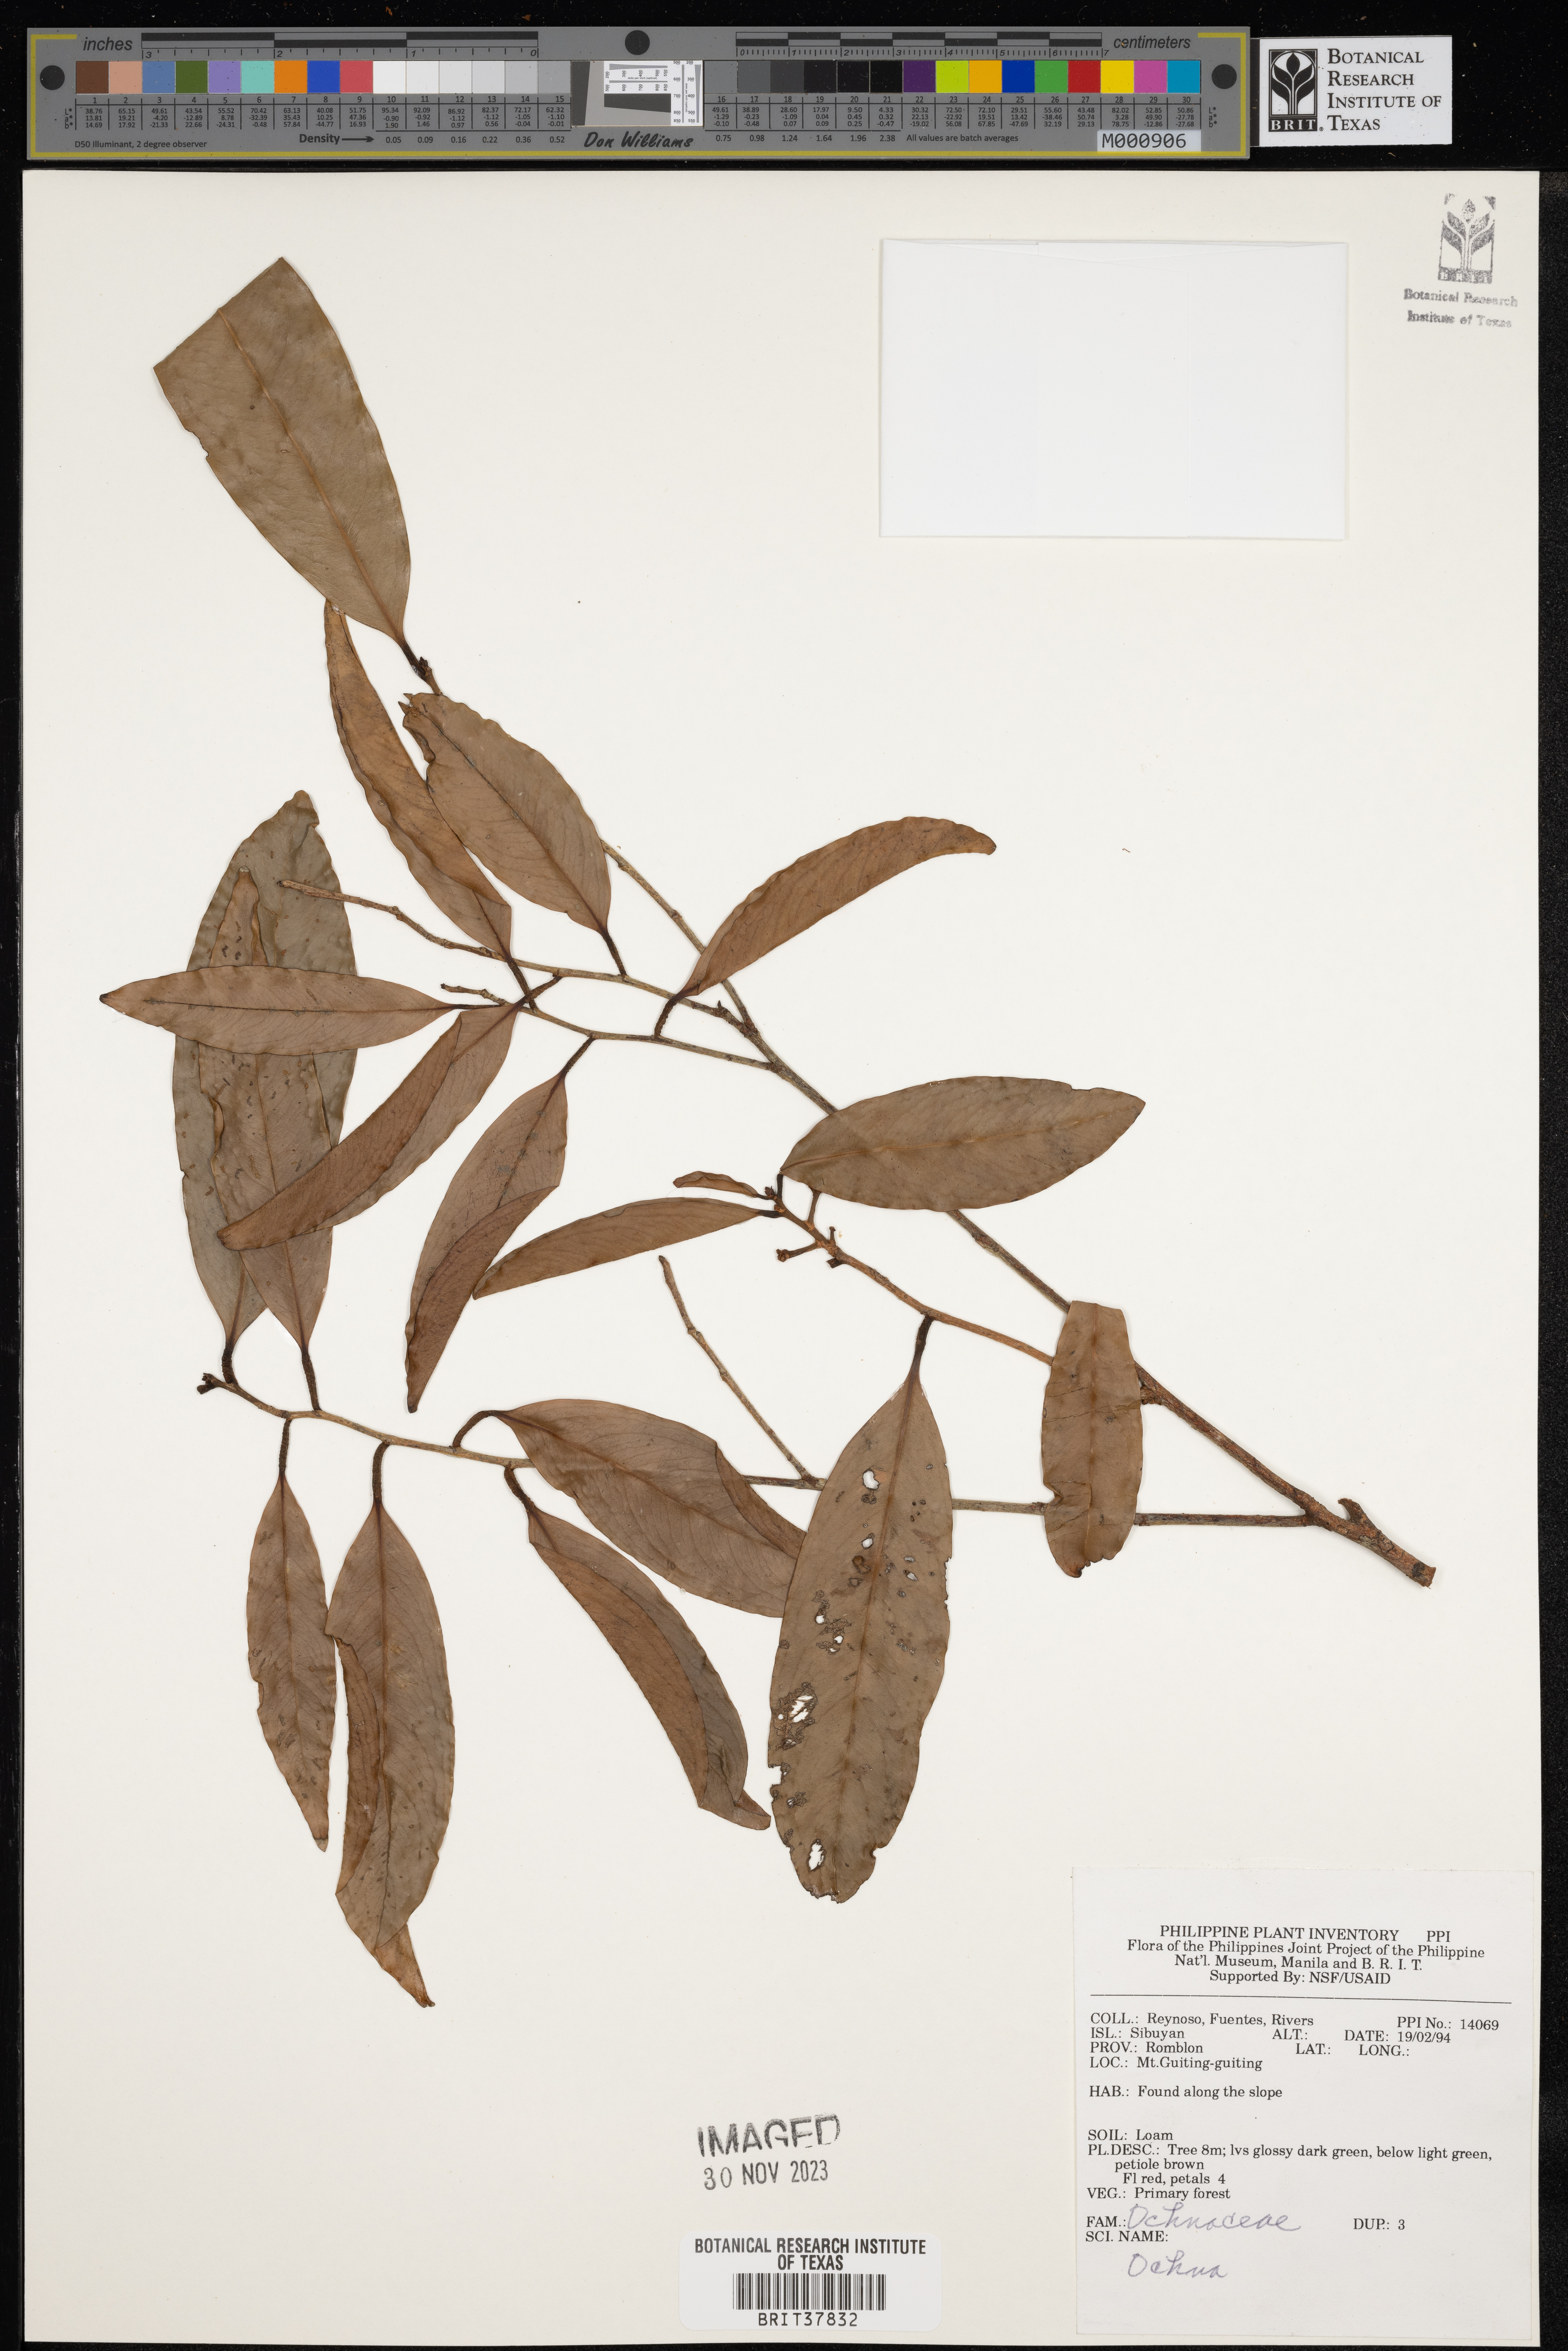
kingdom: Plantae
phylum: Tracheophyta
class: Magnoliopsida
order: Malpighiales
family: Ochnaceae
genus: Ochna
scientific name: Ochna
